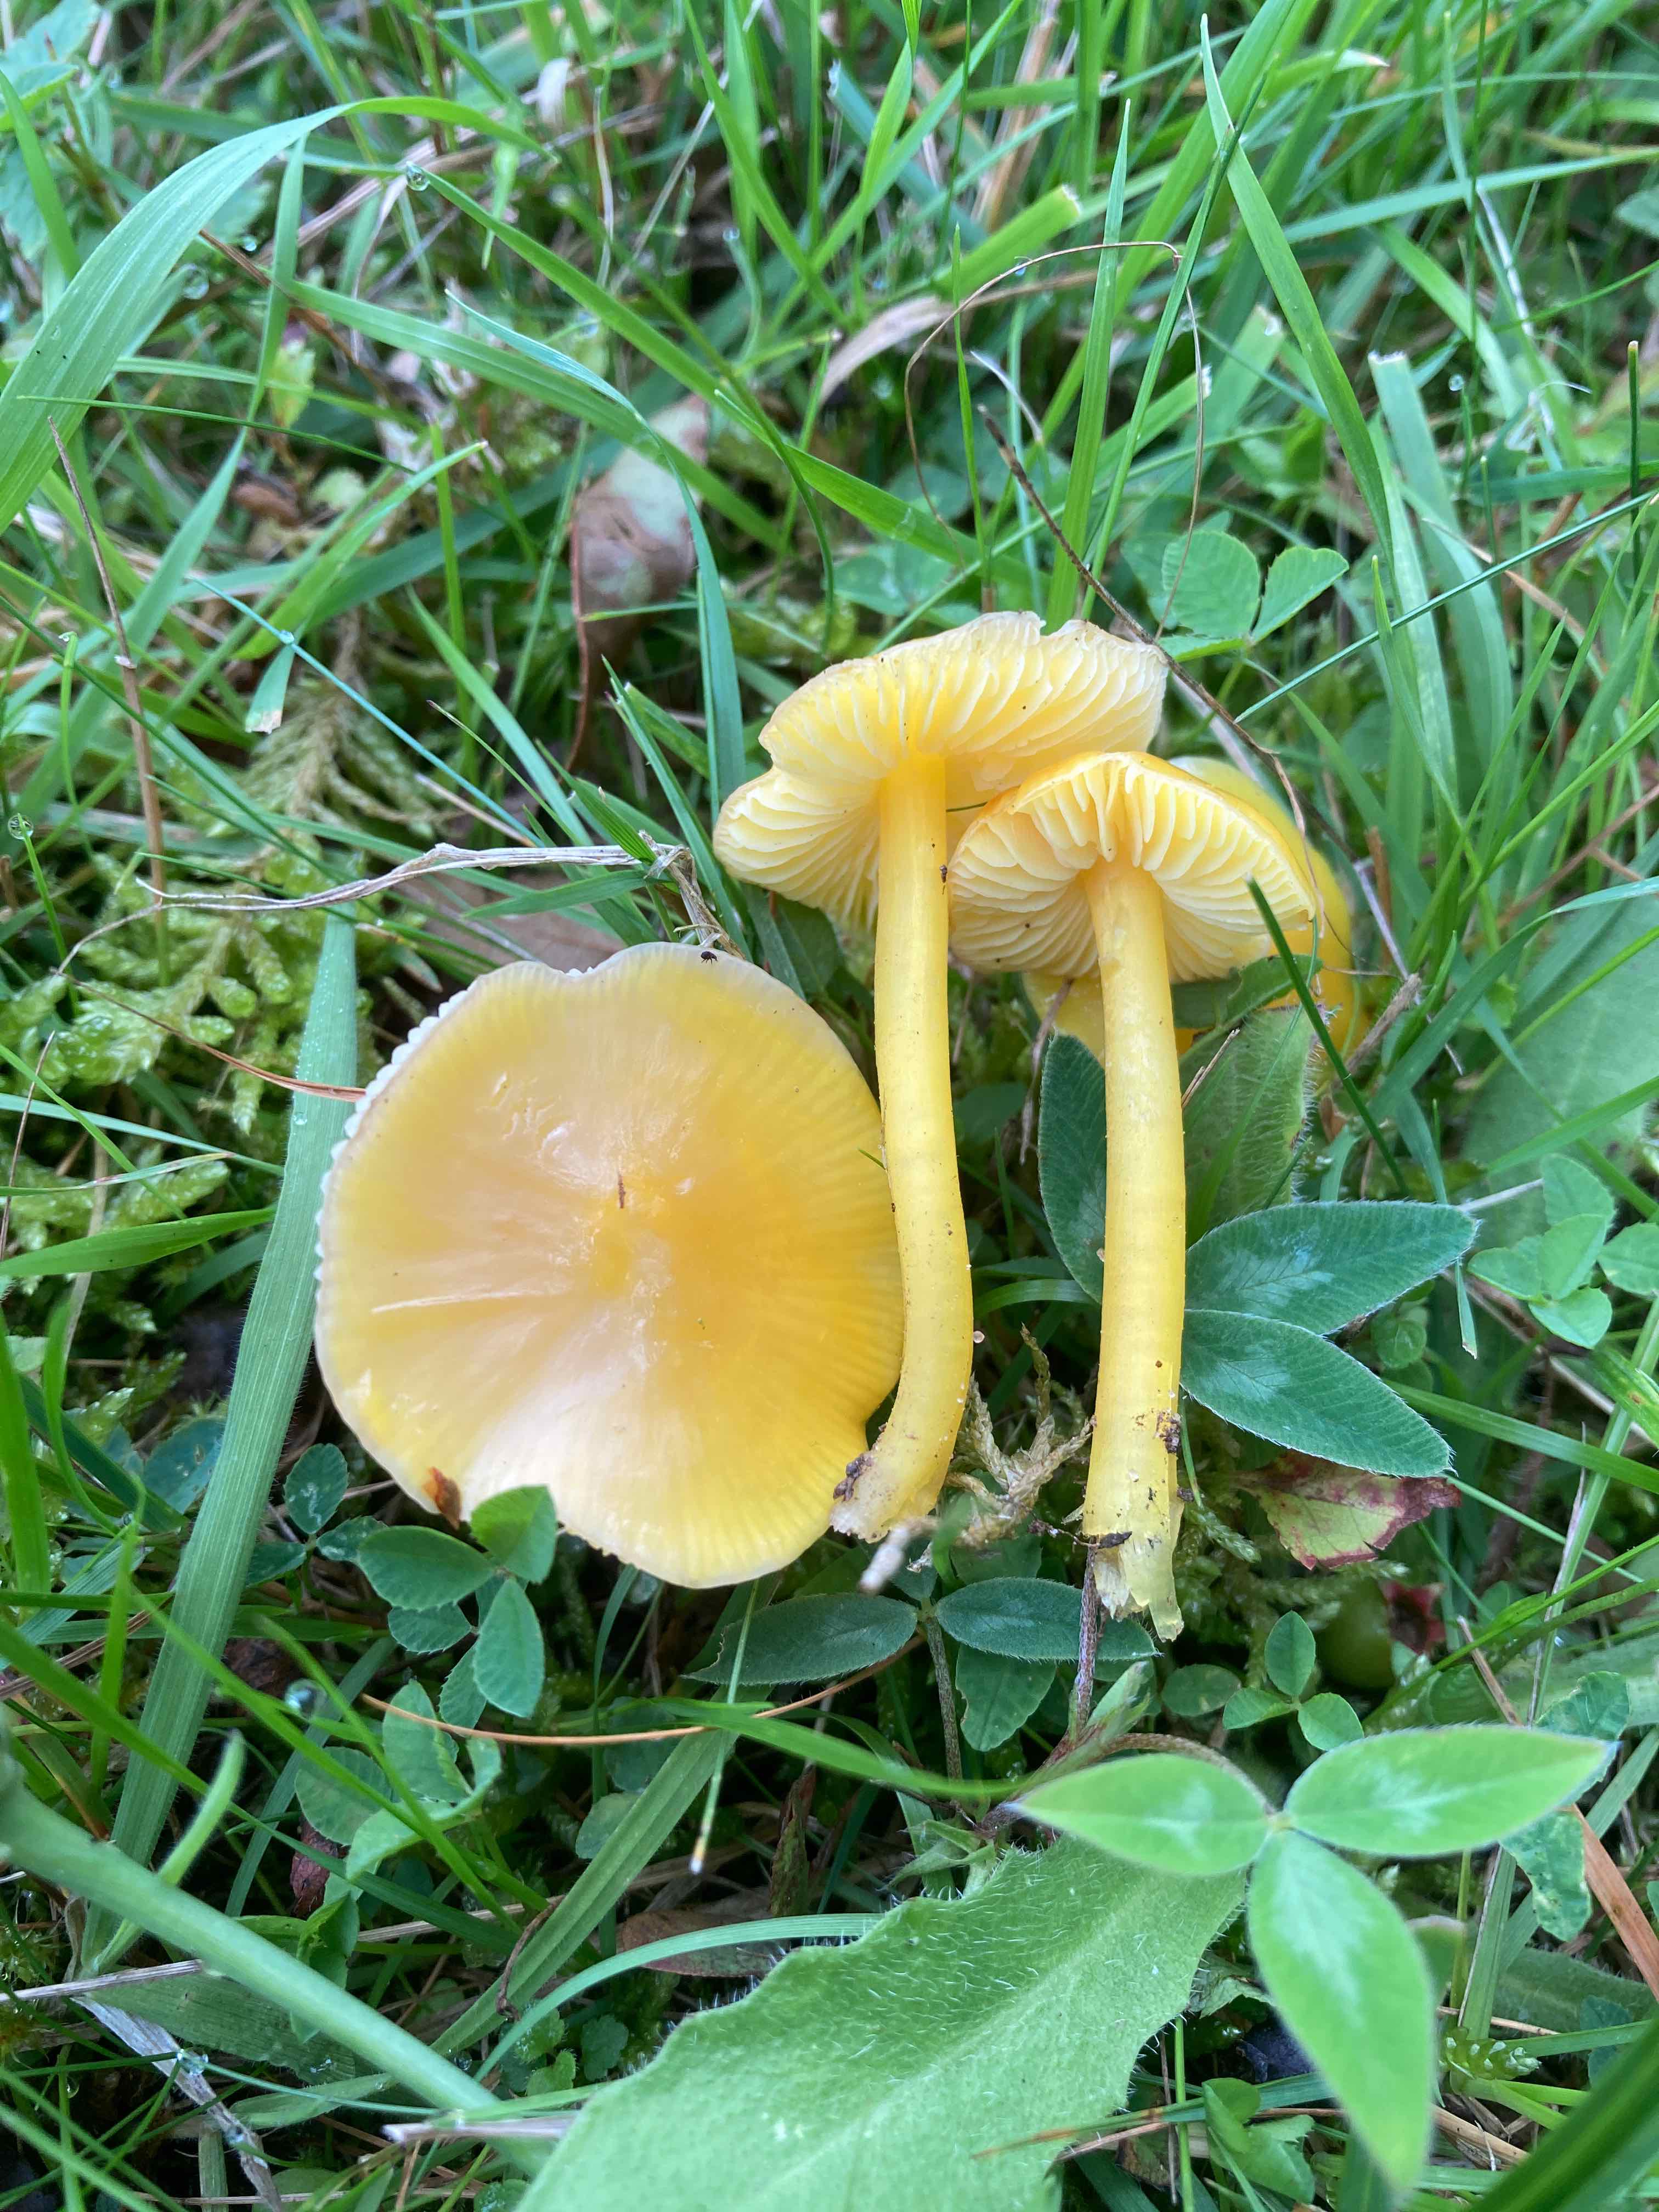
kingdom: Fungi
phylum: Basidiomycota
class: Agaricomycetes
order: Agaricales
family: Hygrophoraceae
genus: Hygrocybe
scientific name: Hygrocybe chlorophana
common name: gul vokshat
